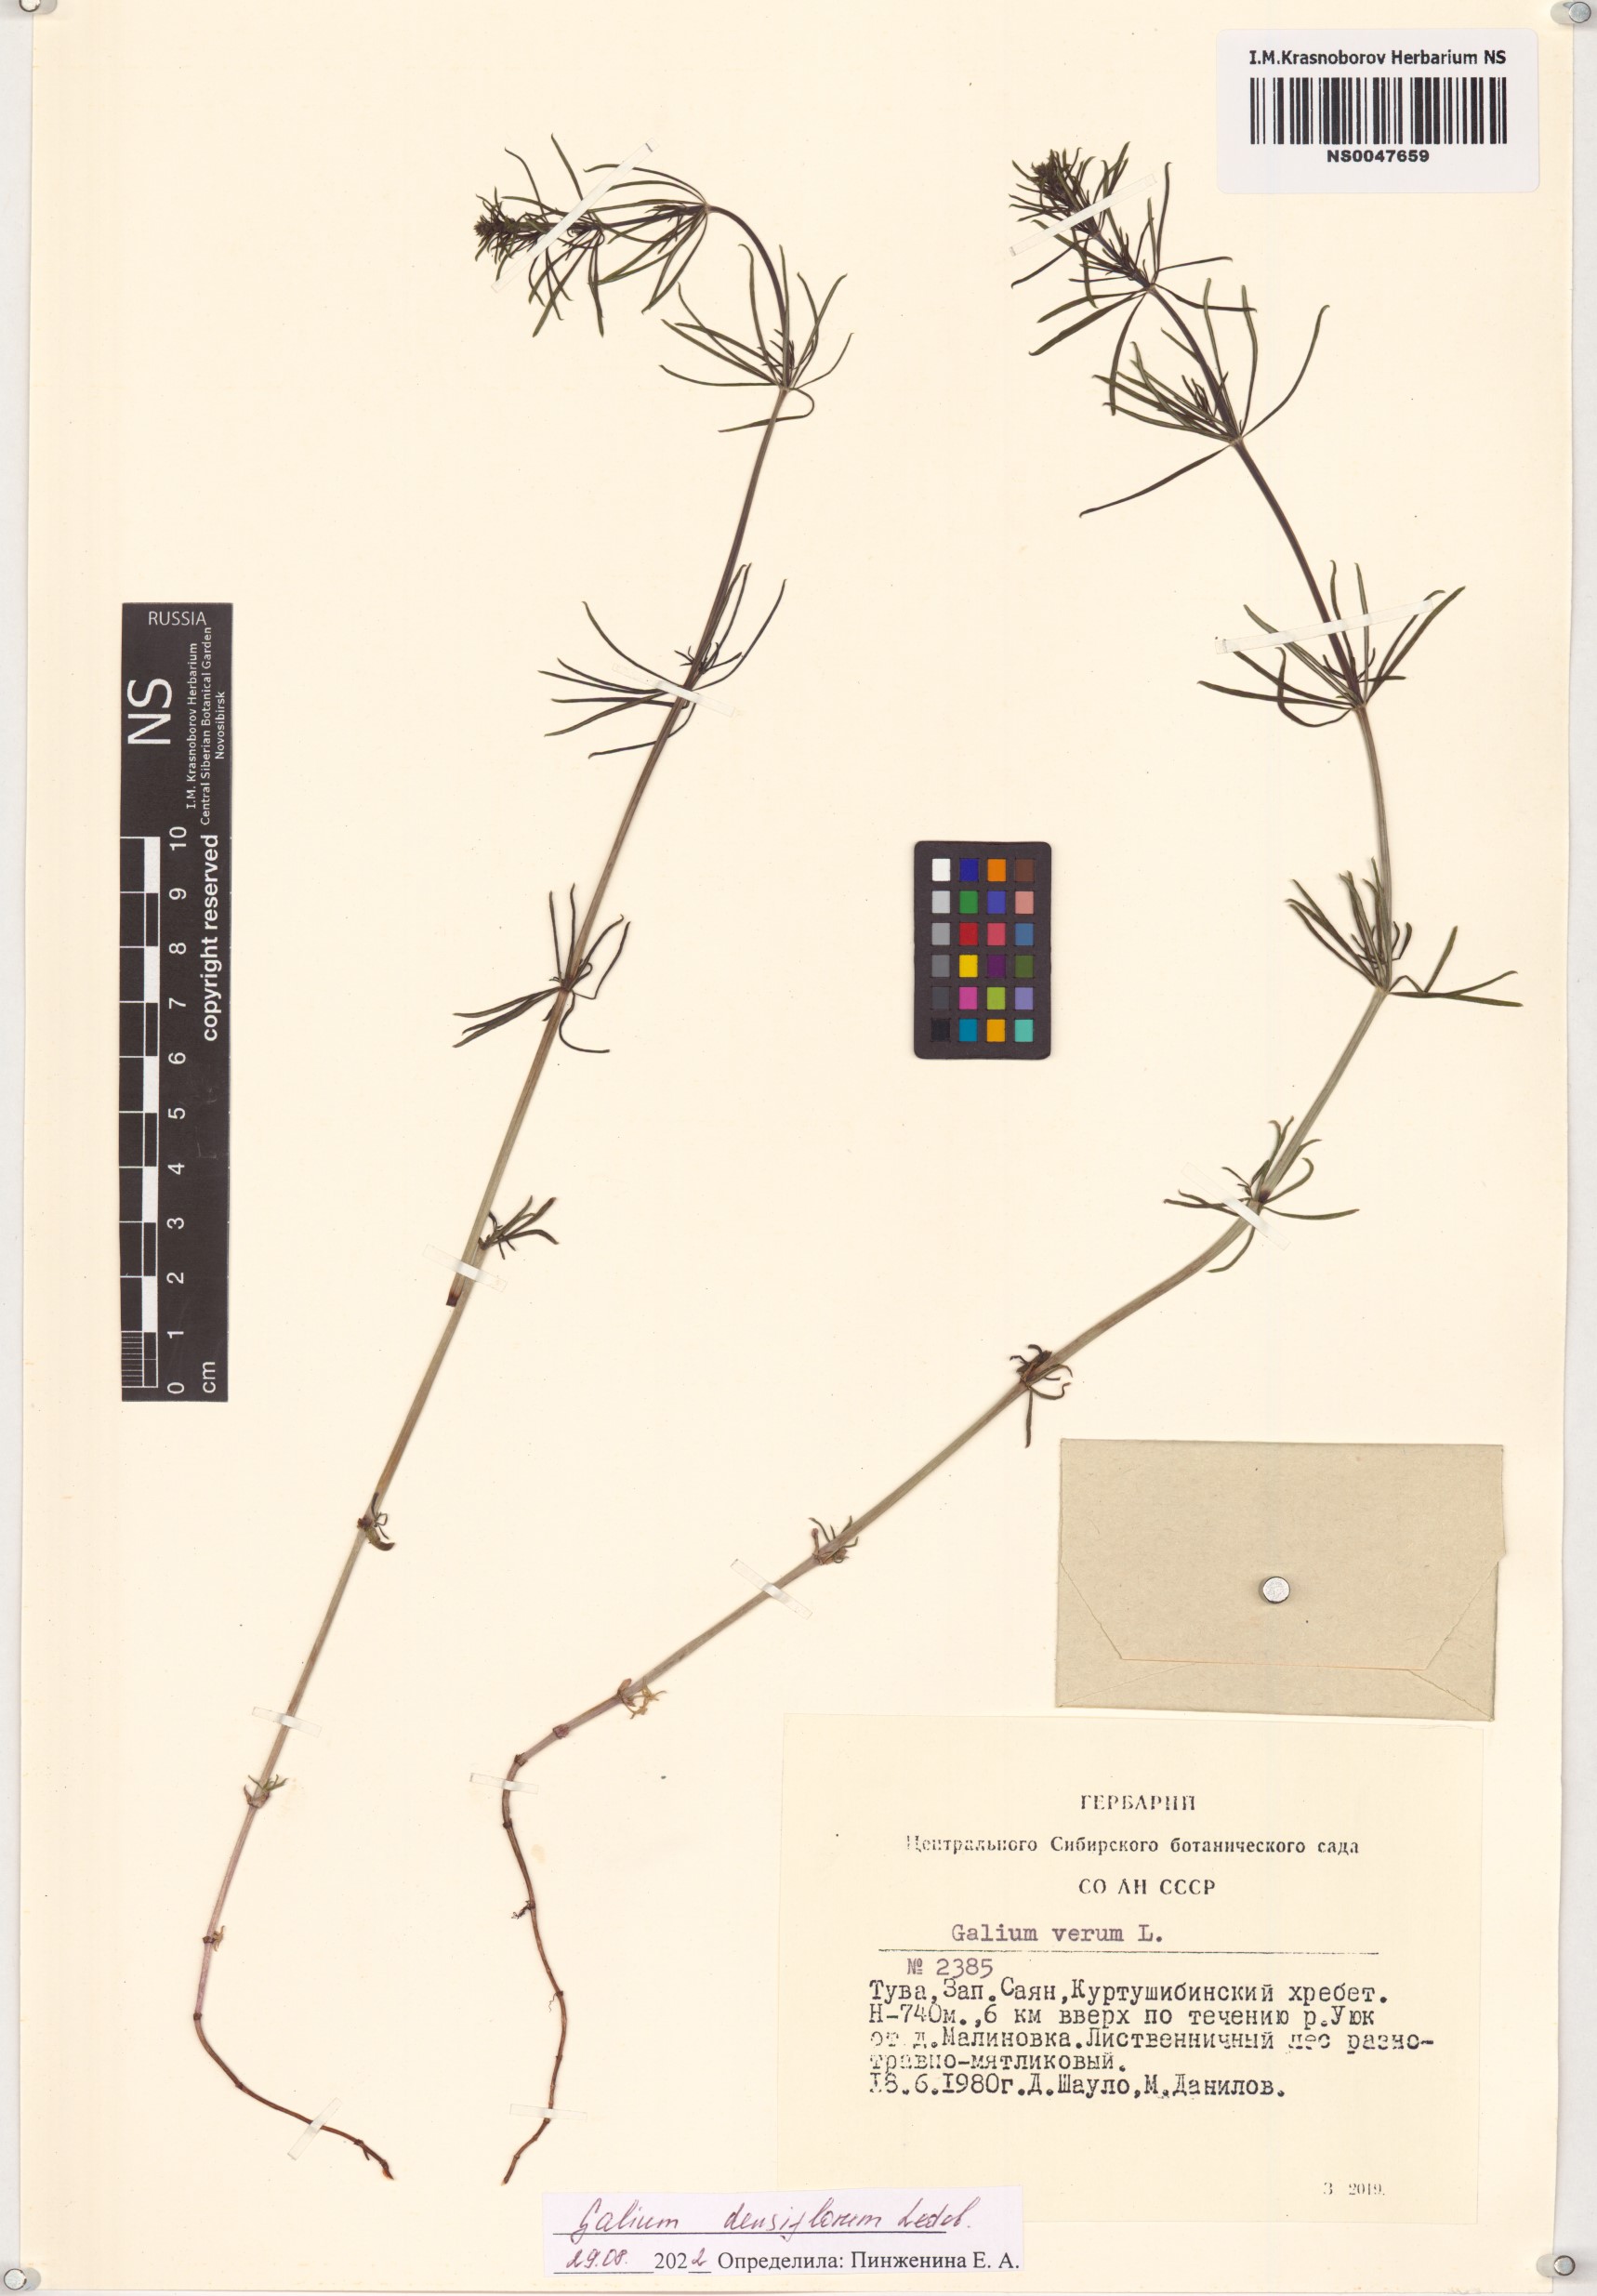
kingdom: Plantae
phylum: Tracheophyta
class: Magnoliopsida
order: Gentianales
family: Rubiaceae
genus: Galium
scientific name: Galium densiflorum
